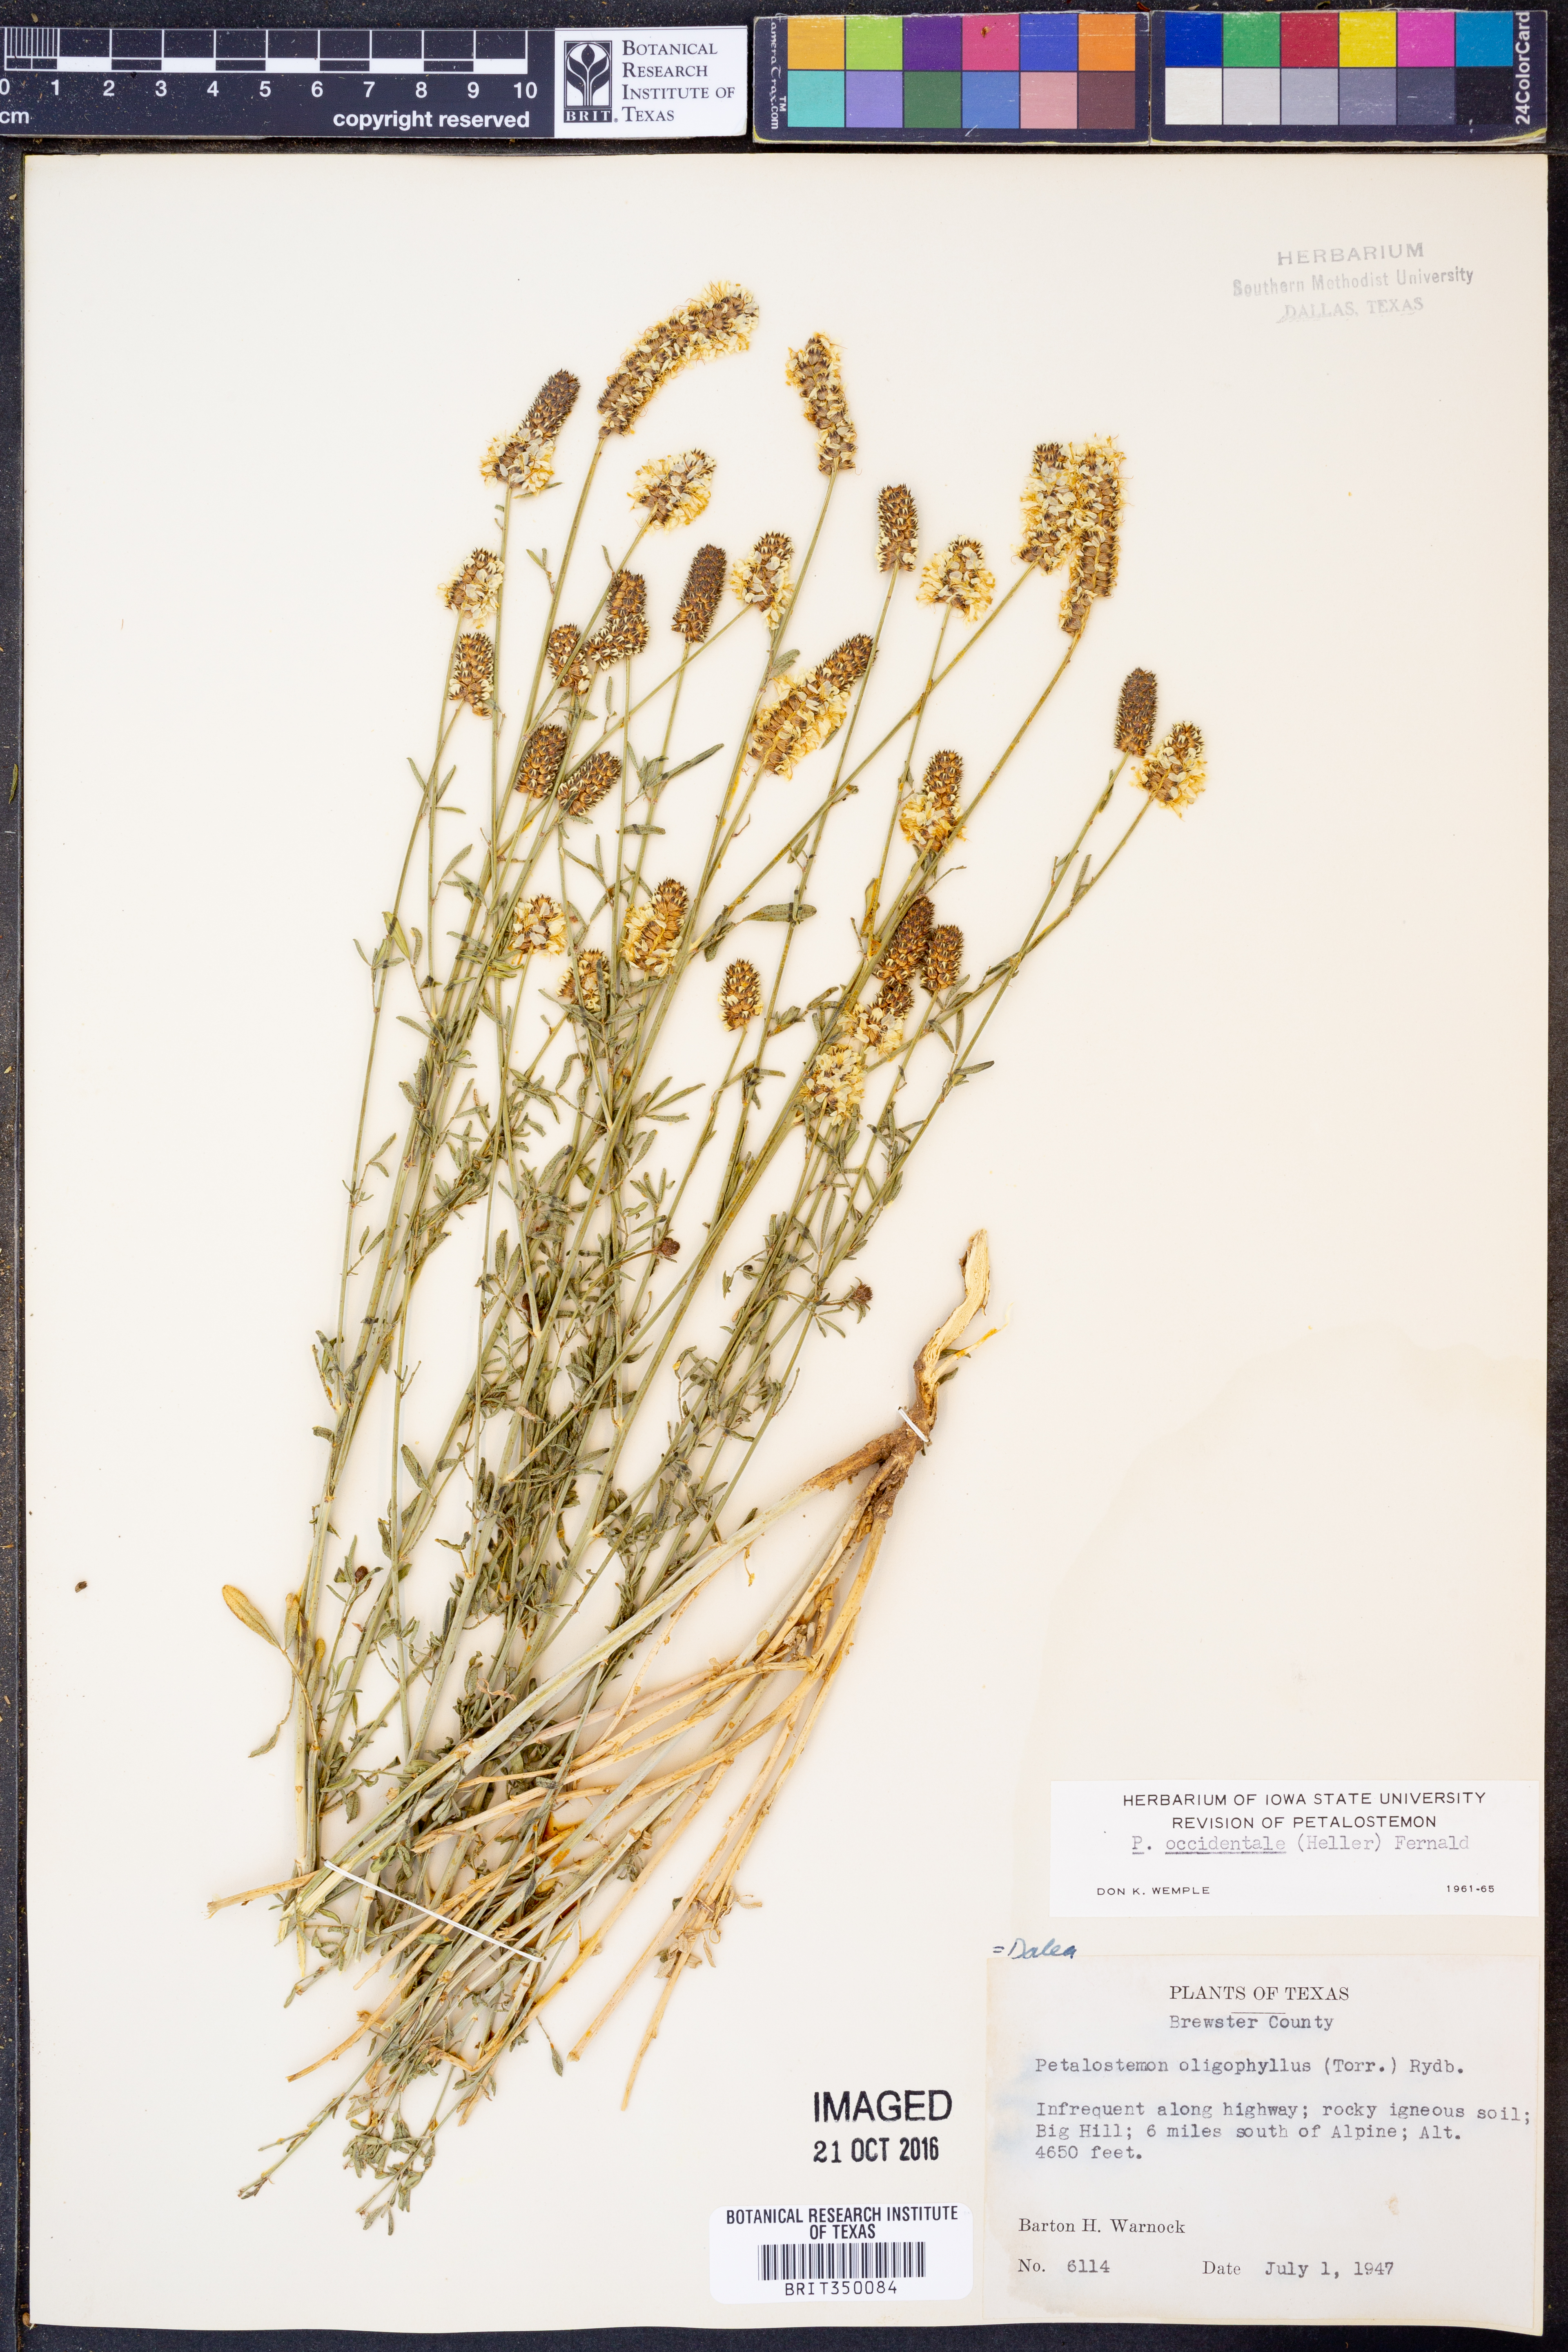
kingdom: Plantae
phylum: Tracheophyta
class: Magnoliopsida
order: Fabales
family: Fabaceae
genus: Dalea
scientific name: Dalea candida
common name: White prairie-clover
